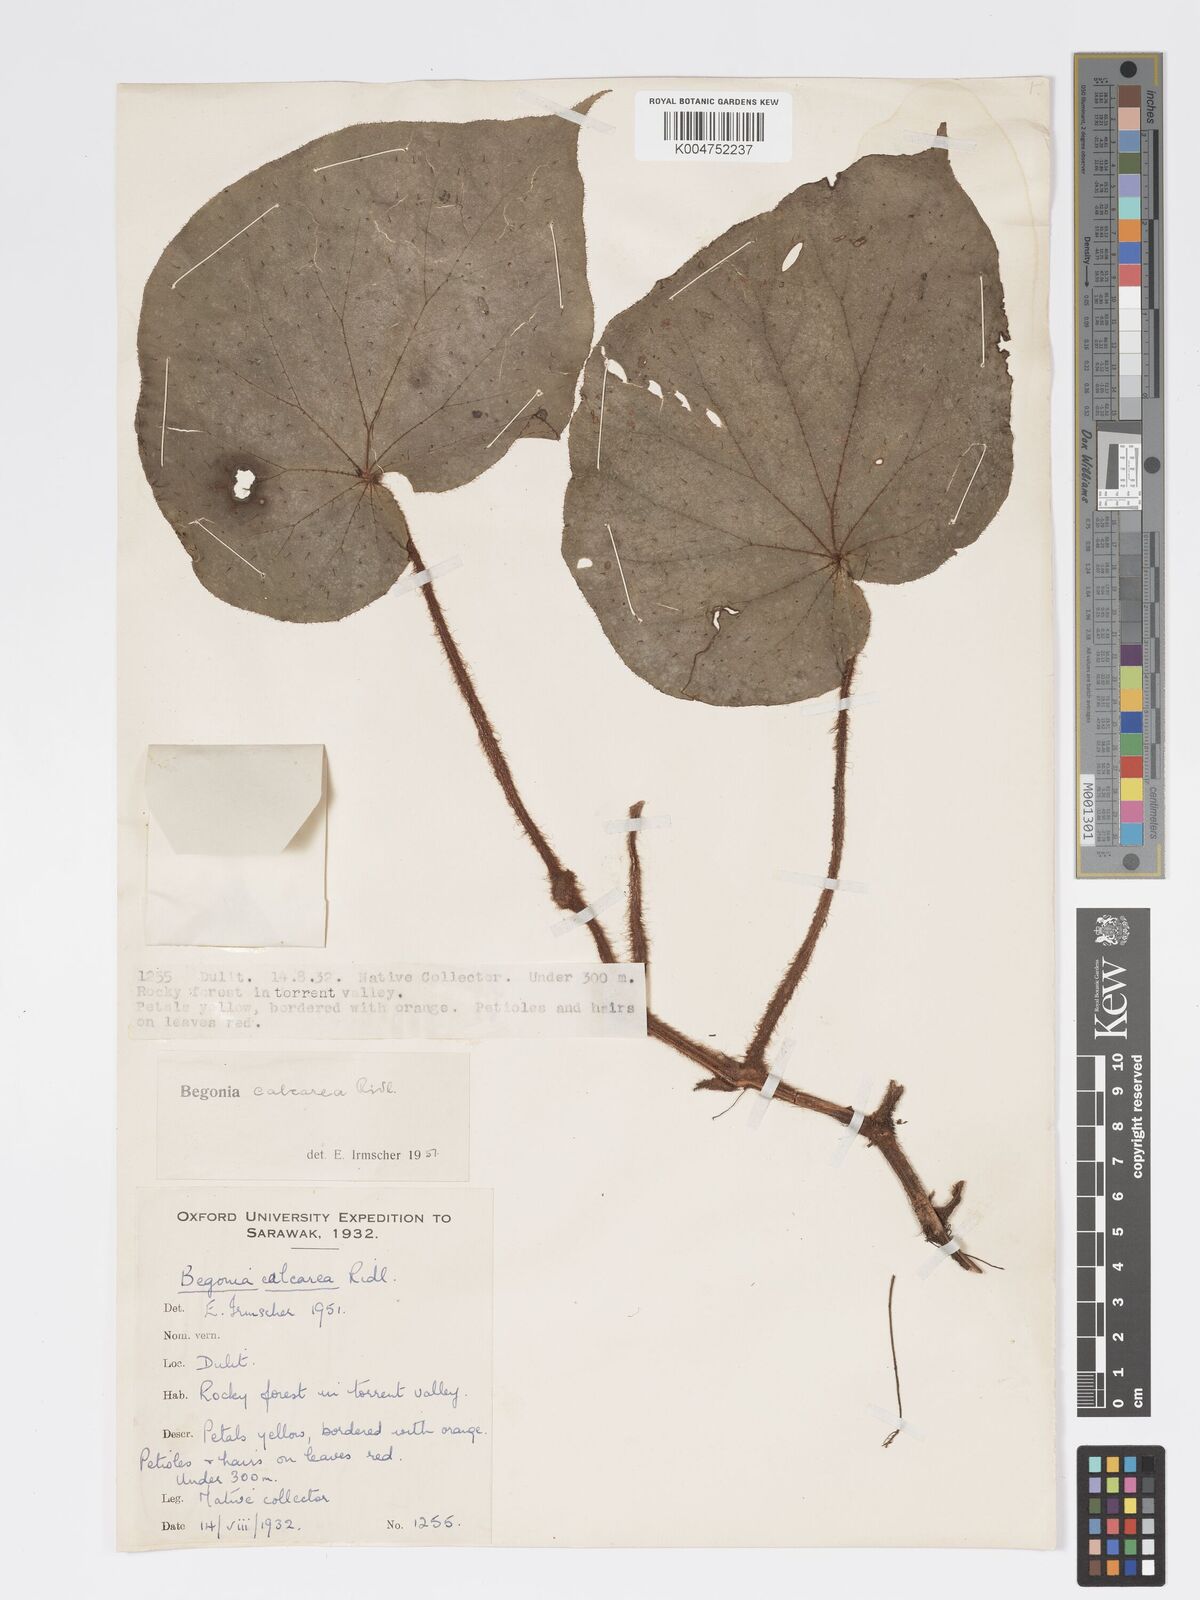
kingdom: Plantae
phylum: Tracheophyta
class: Magnoliopsida
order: Cucurbitales
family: Begoniaceae
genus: Begonia
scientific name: Begonia
